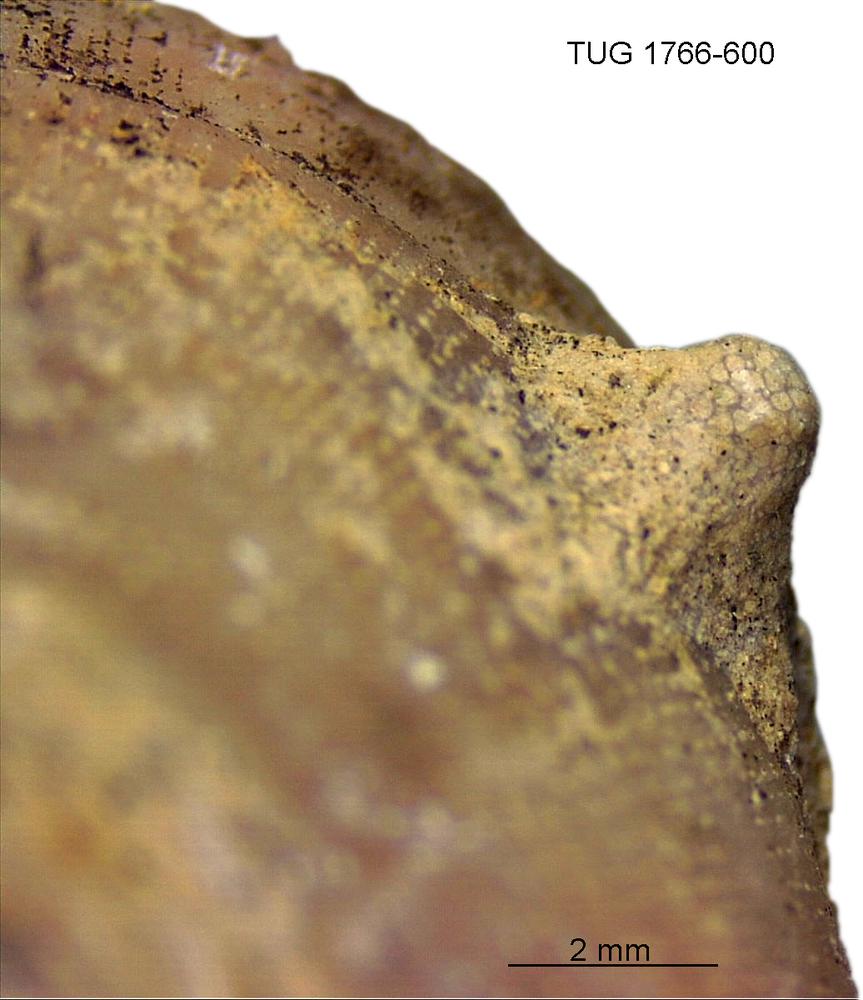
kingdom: Animalia
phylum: Bryozoa
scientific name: Bryozoa
